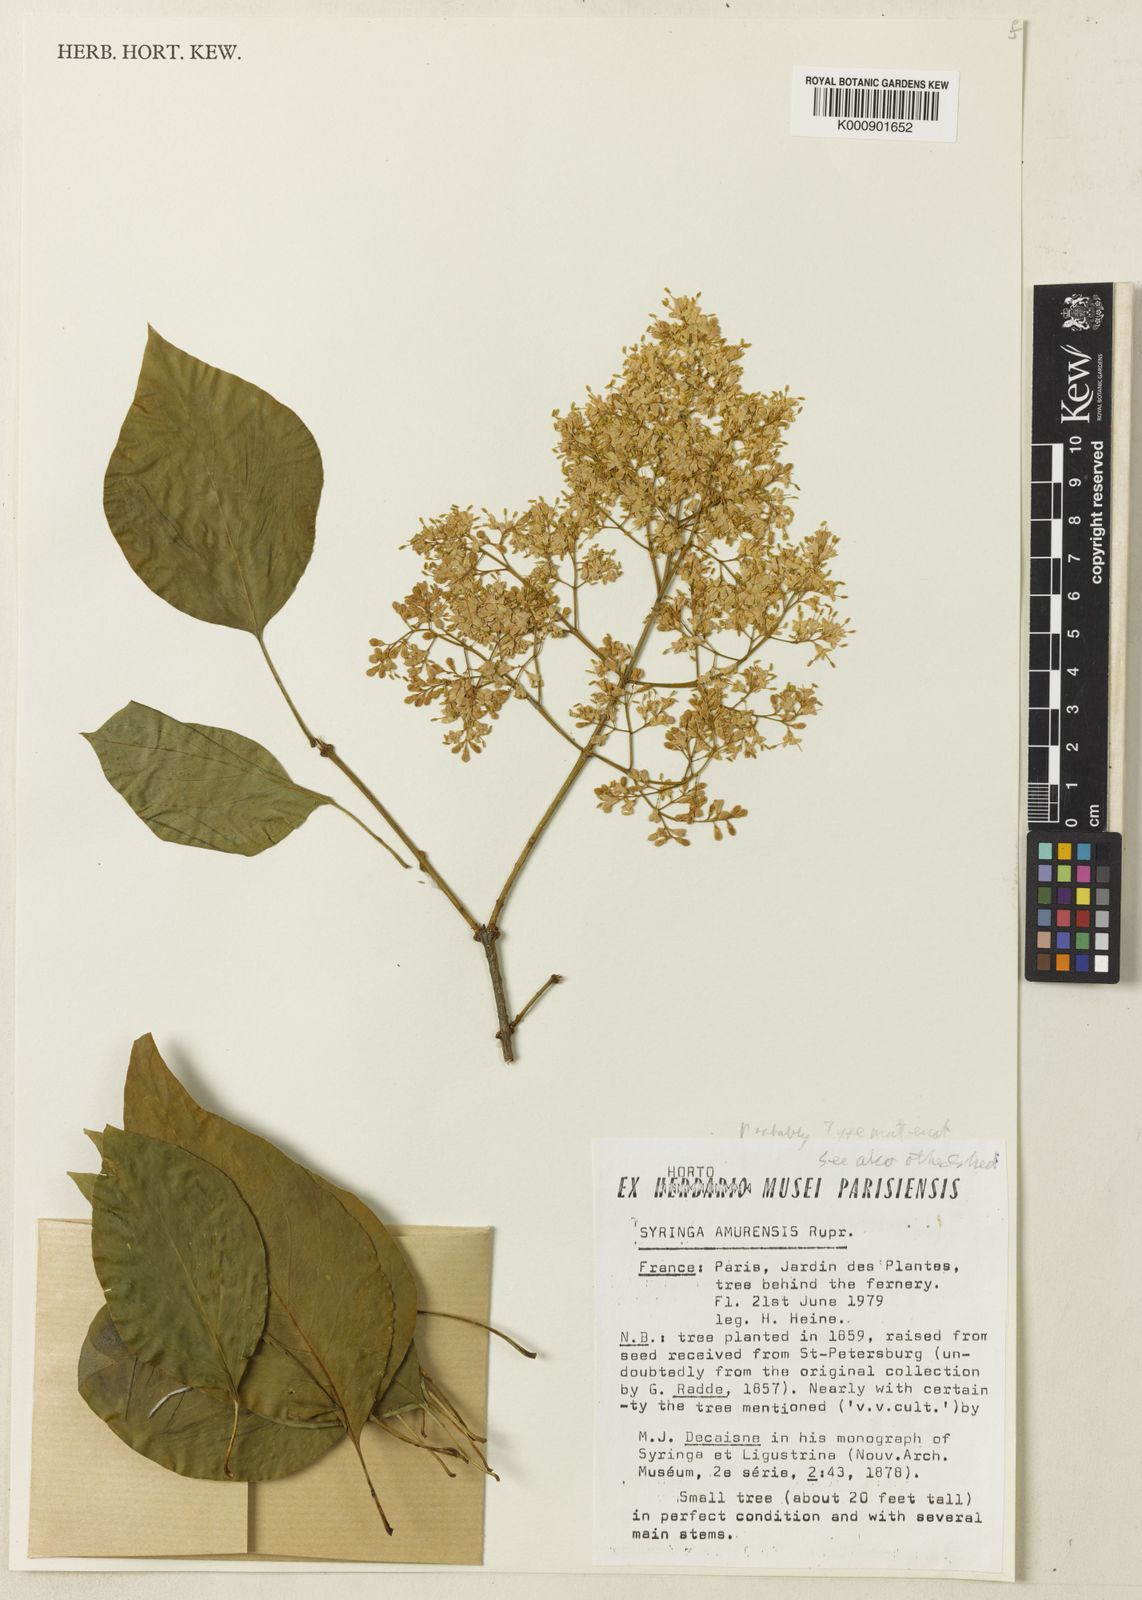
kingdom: Plantae
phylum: Tracheophyta
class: Magnoliopsida
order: Lamiales
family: Oleaceae
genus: Syringa
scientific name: Syringa reticulata
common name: Japanese tree lilac
